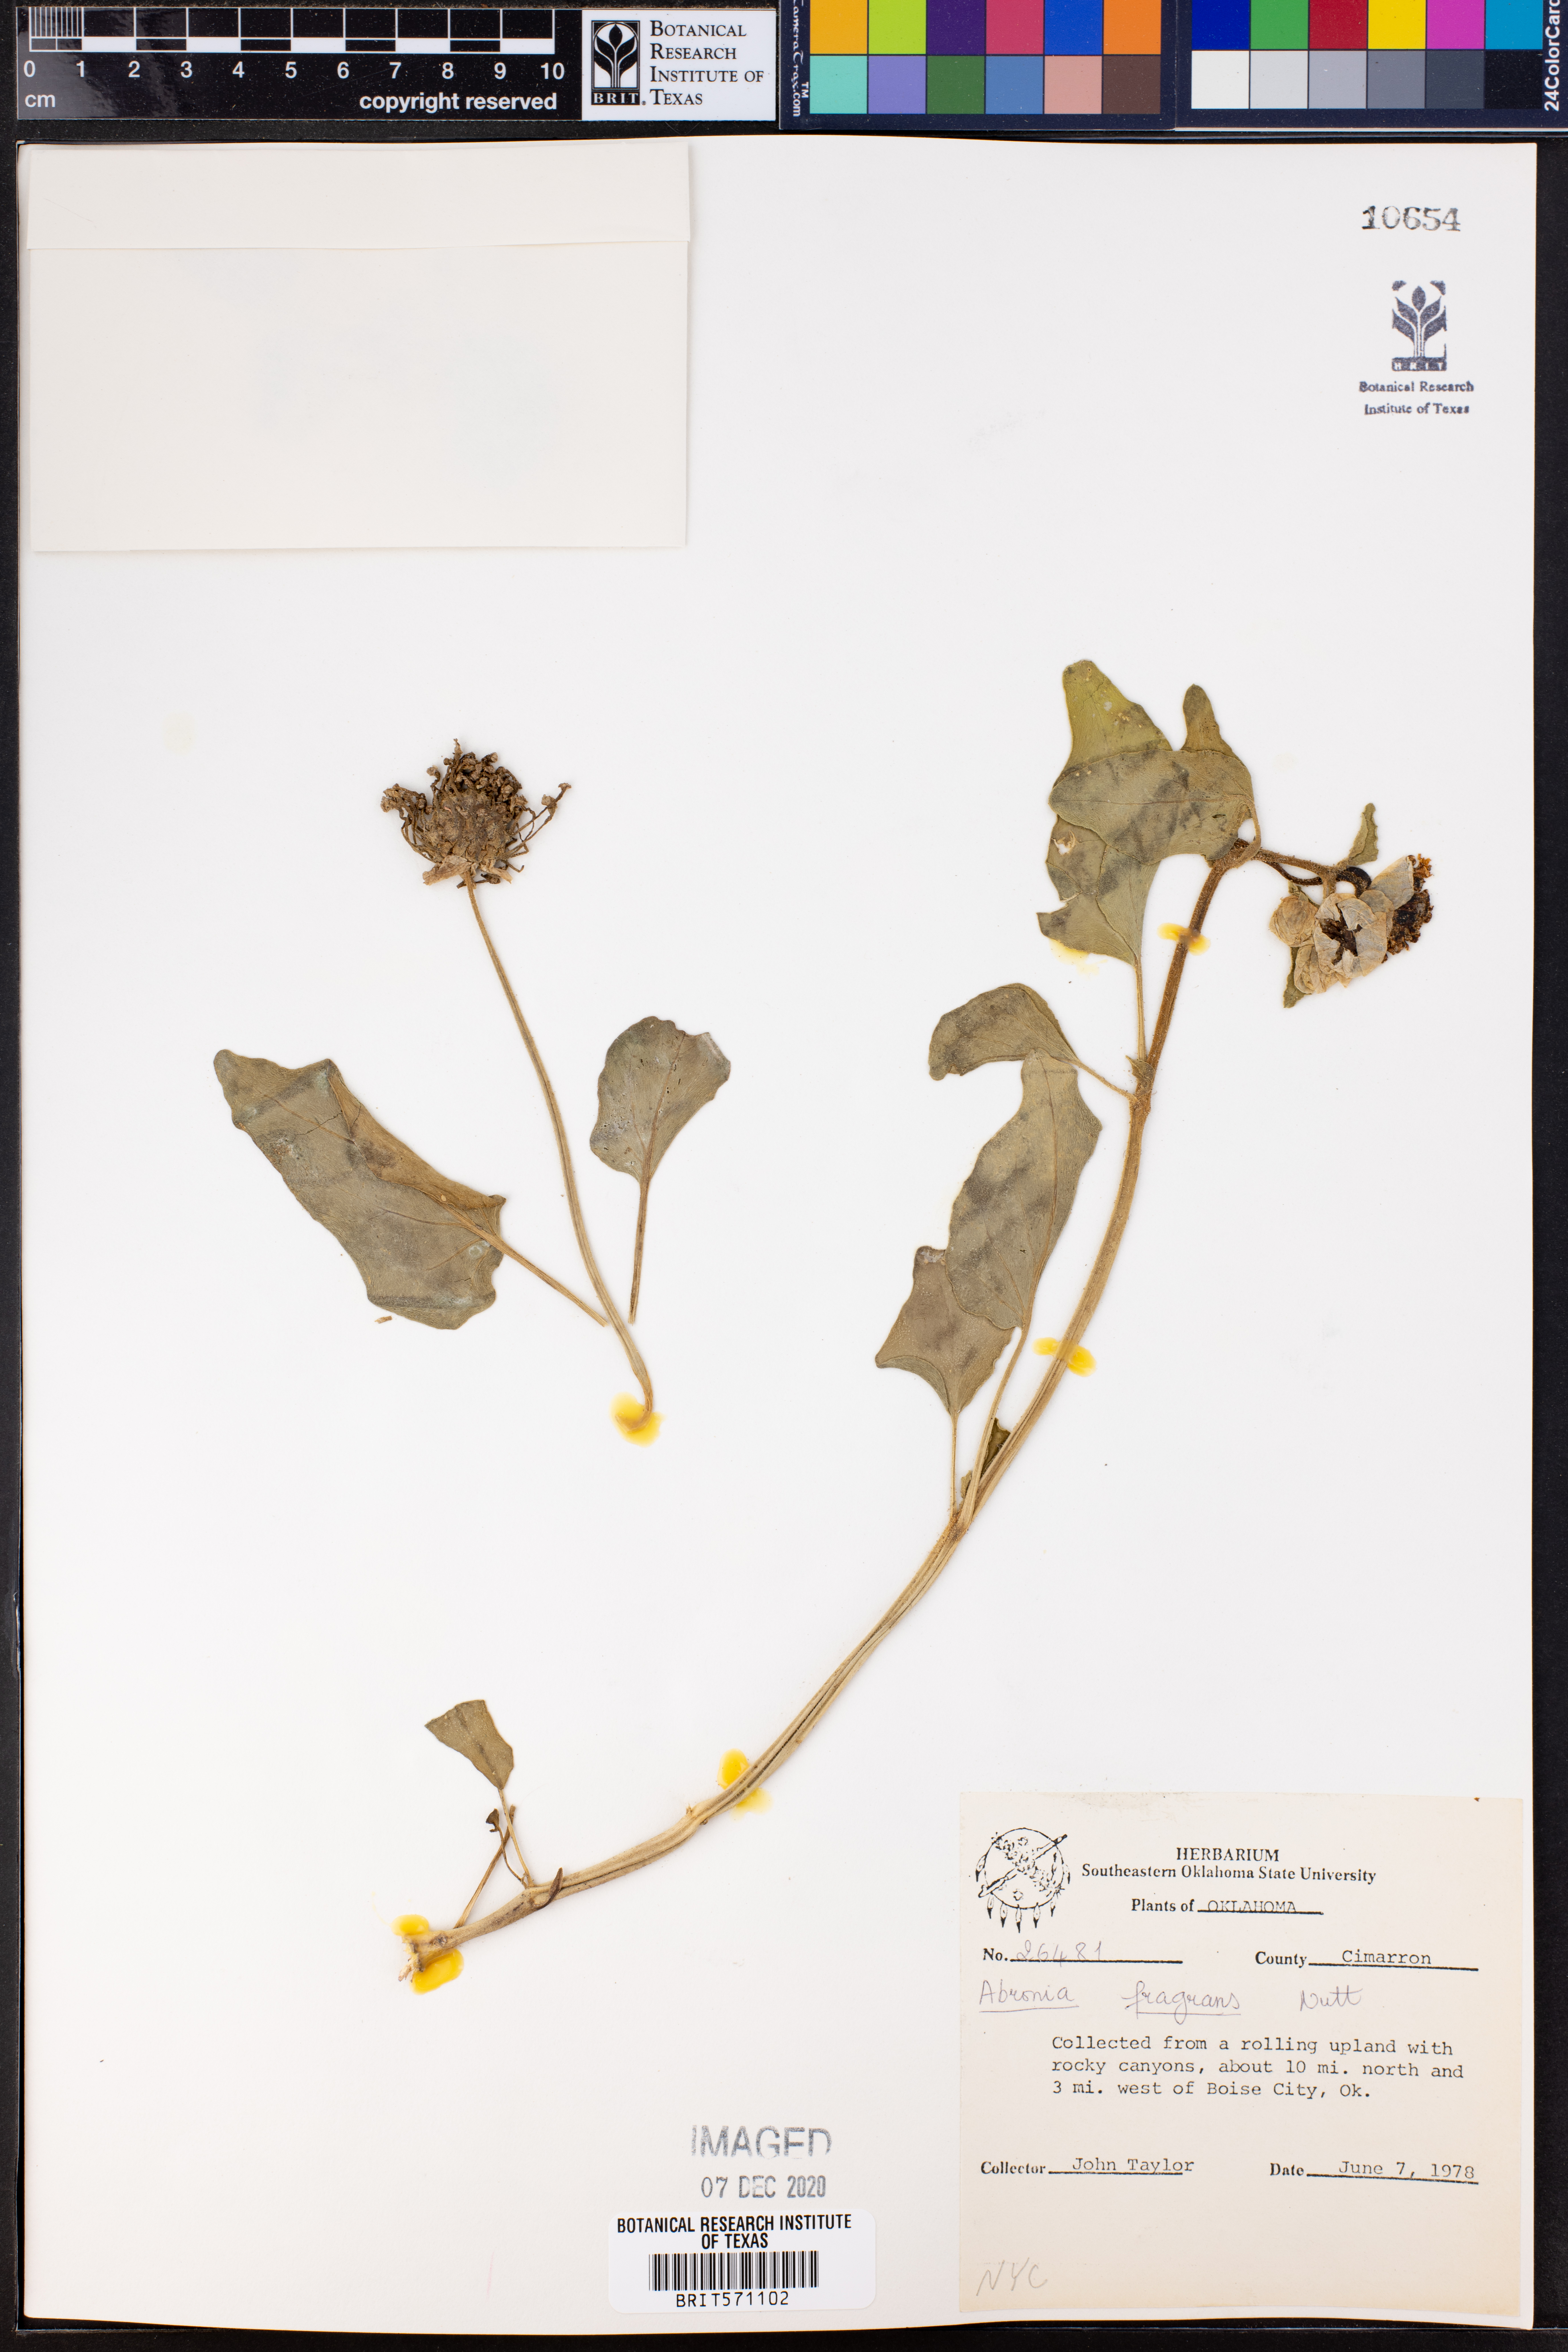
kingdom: Plantae
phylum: Tracheophyta
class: Magnoliopsida
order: Caryophyllales
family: Nyctaginaceae
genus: Abronia
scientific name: Abronia fragrans
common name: Fragrant sand-verbena
